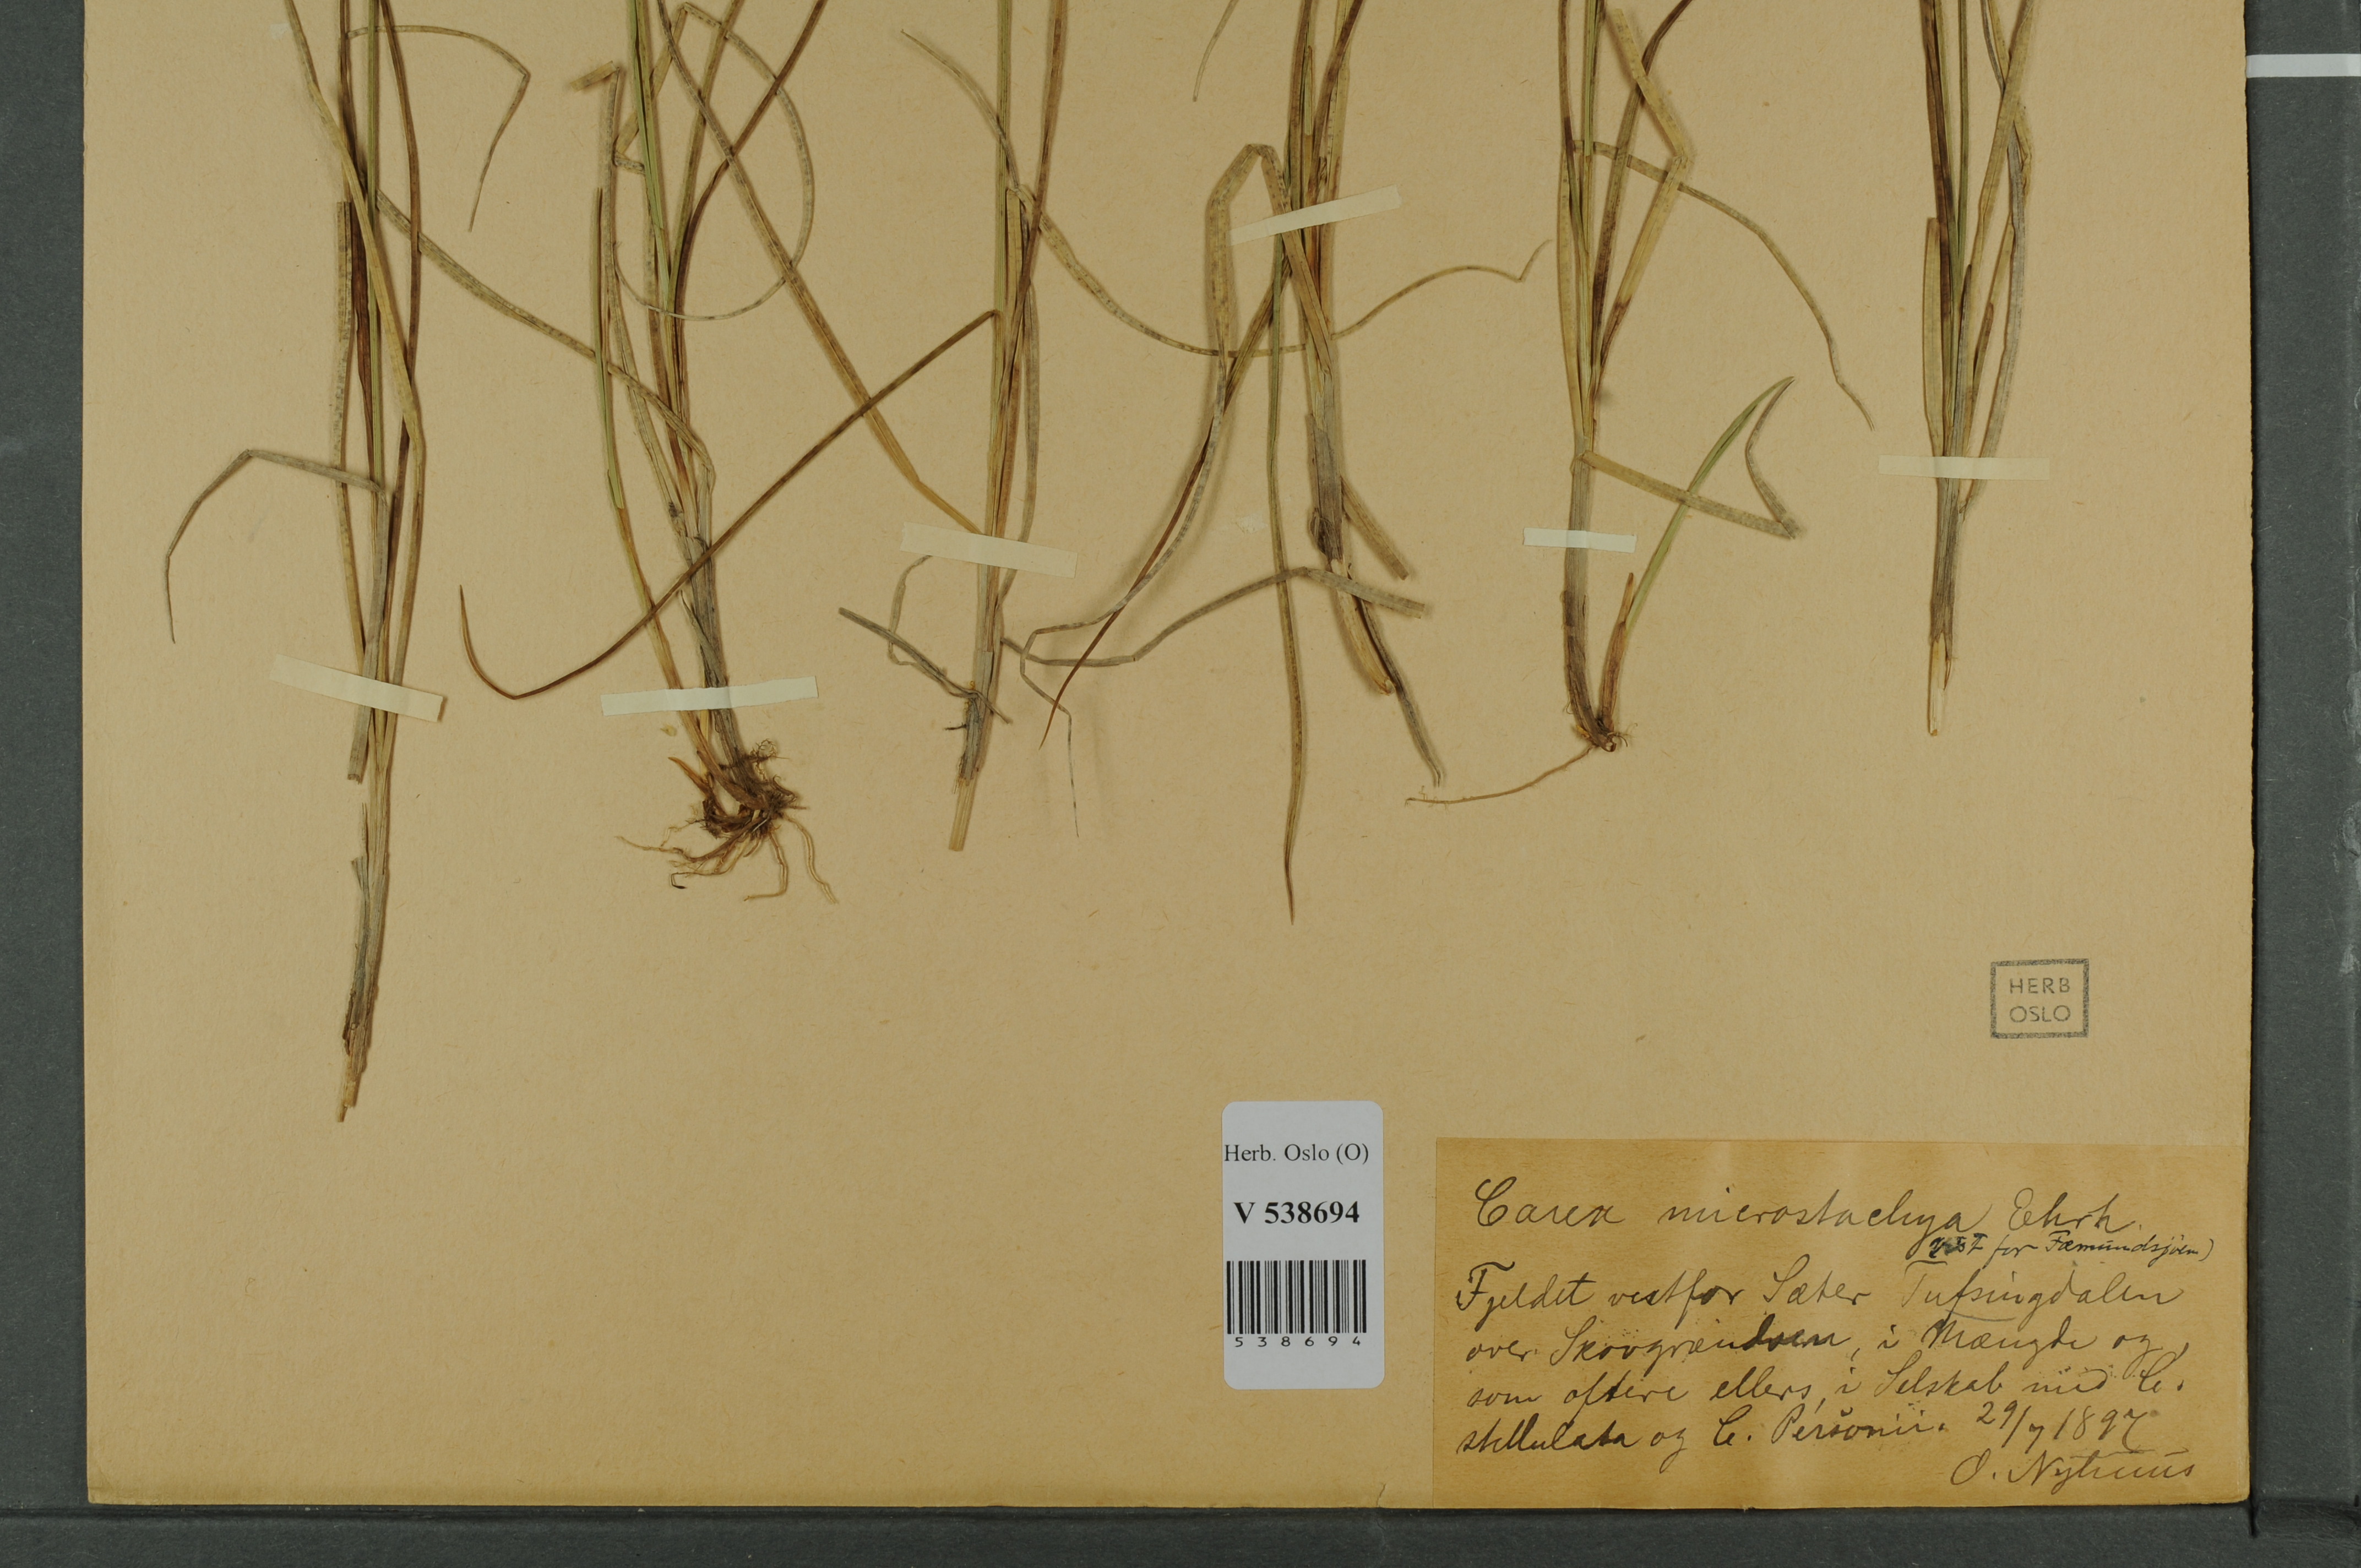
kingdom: Plantae
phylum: Tracheophyta
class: Liliopsida
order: Poales
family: Cyperaceae
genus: Carex
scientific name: Carex
